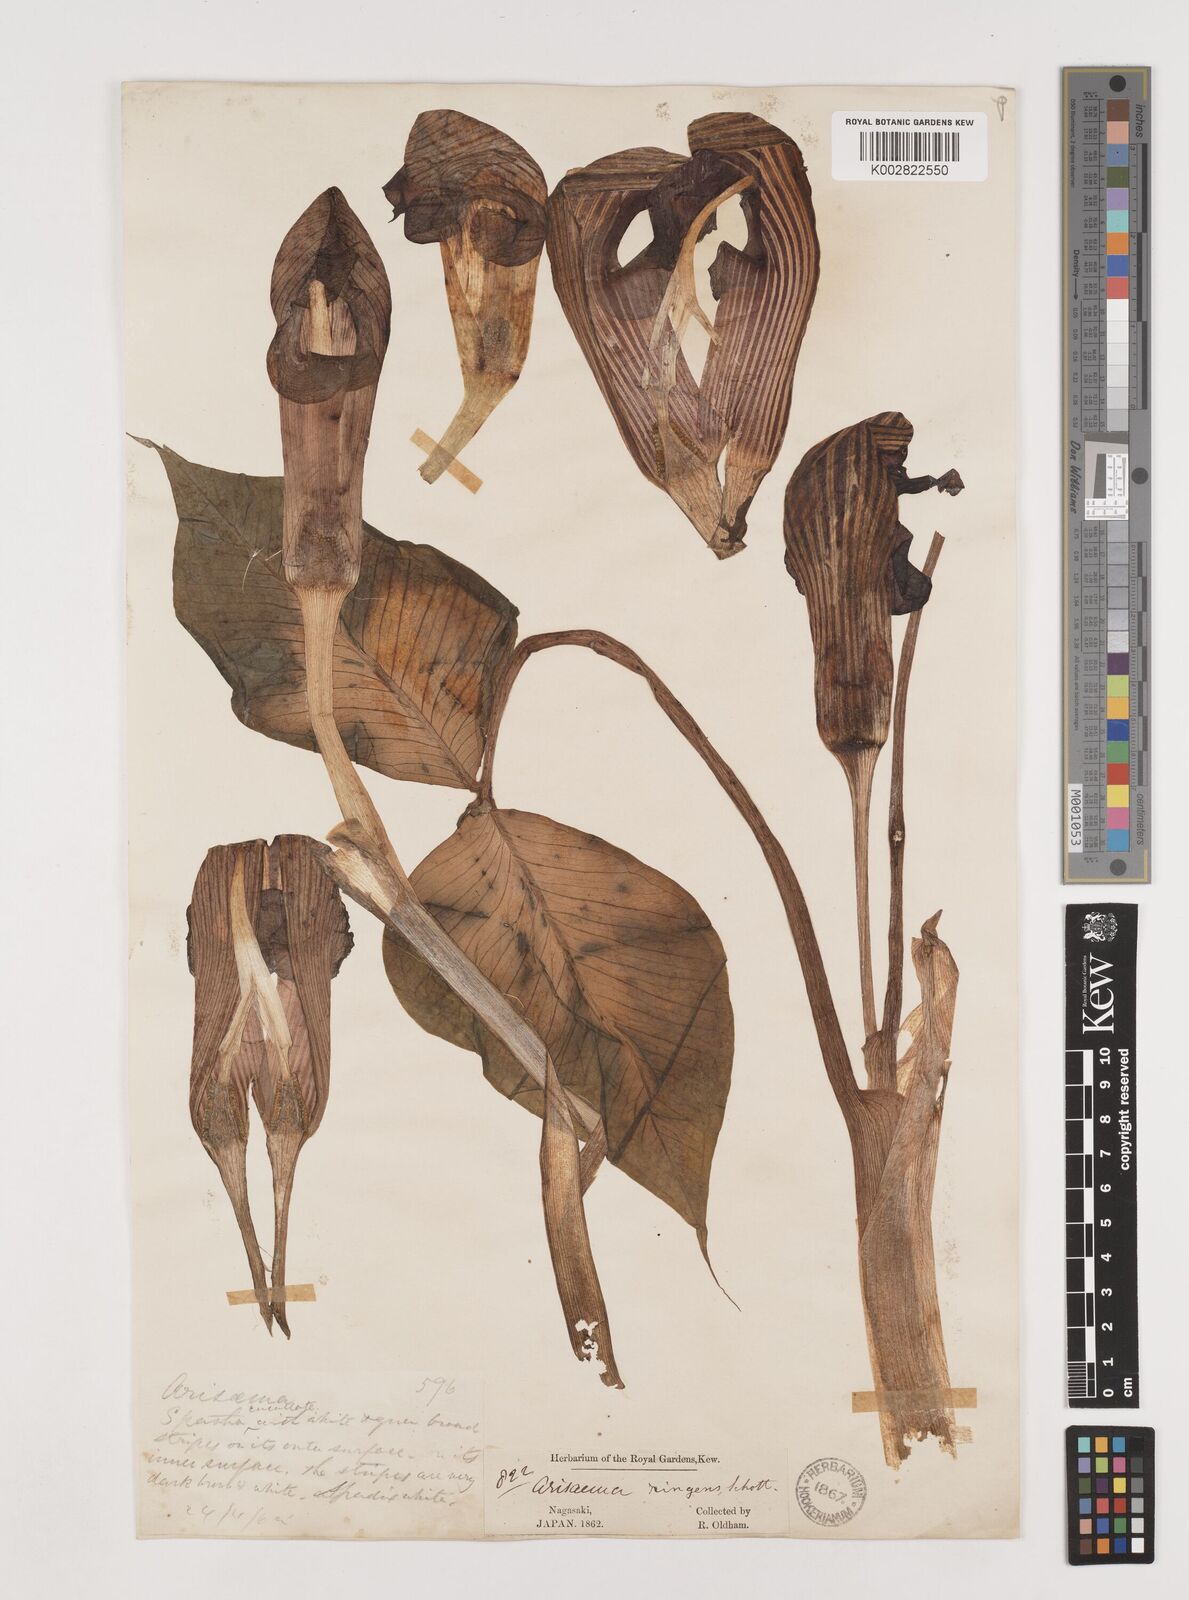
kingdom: Plantae
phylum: Tracheophyta
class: Liliopsida
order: Alismatales
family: Araceae
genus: Arisaema
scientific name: Arisaema ringens
